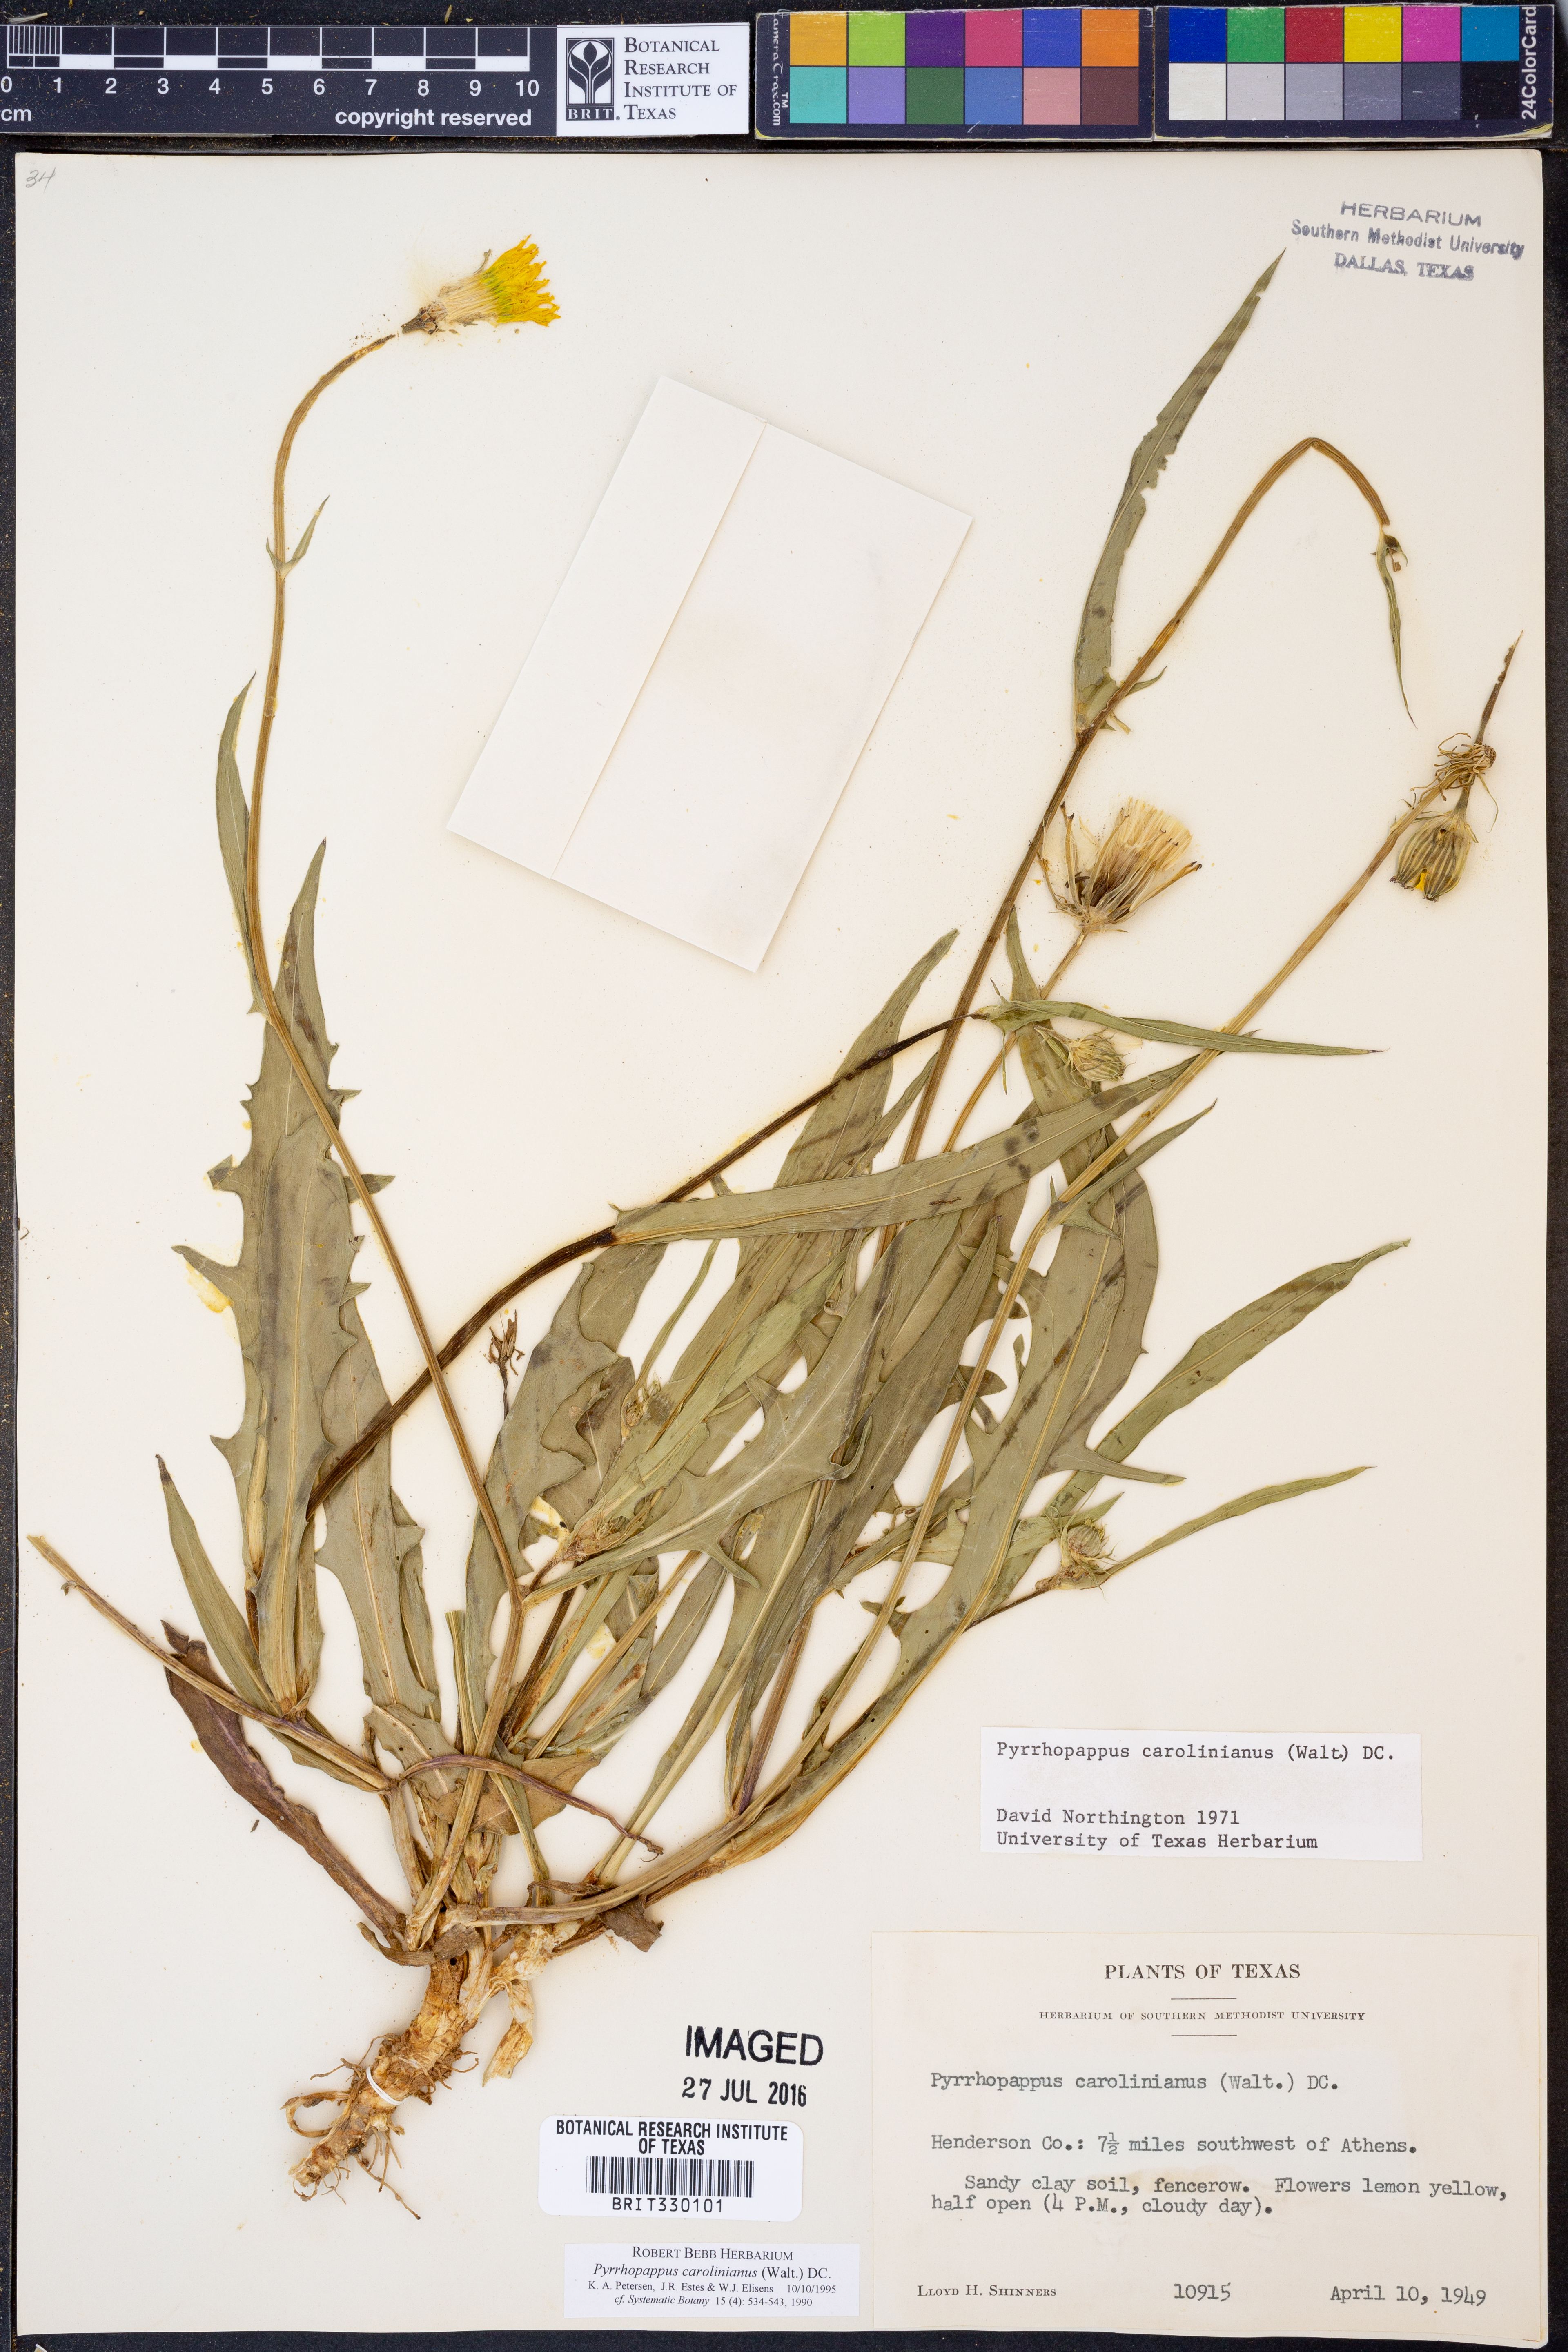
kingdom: Plantae
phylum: Tracheophyta
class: Magnoliopsida
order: Asterales
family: Asteraceae
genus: Pyrrhopappus
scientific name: Pyrrhopappus carolinianus
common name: Carolina desert-chicory
